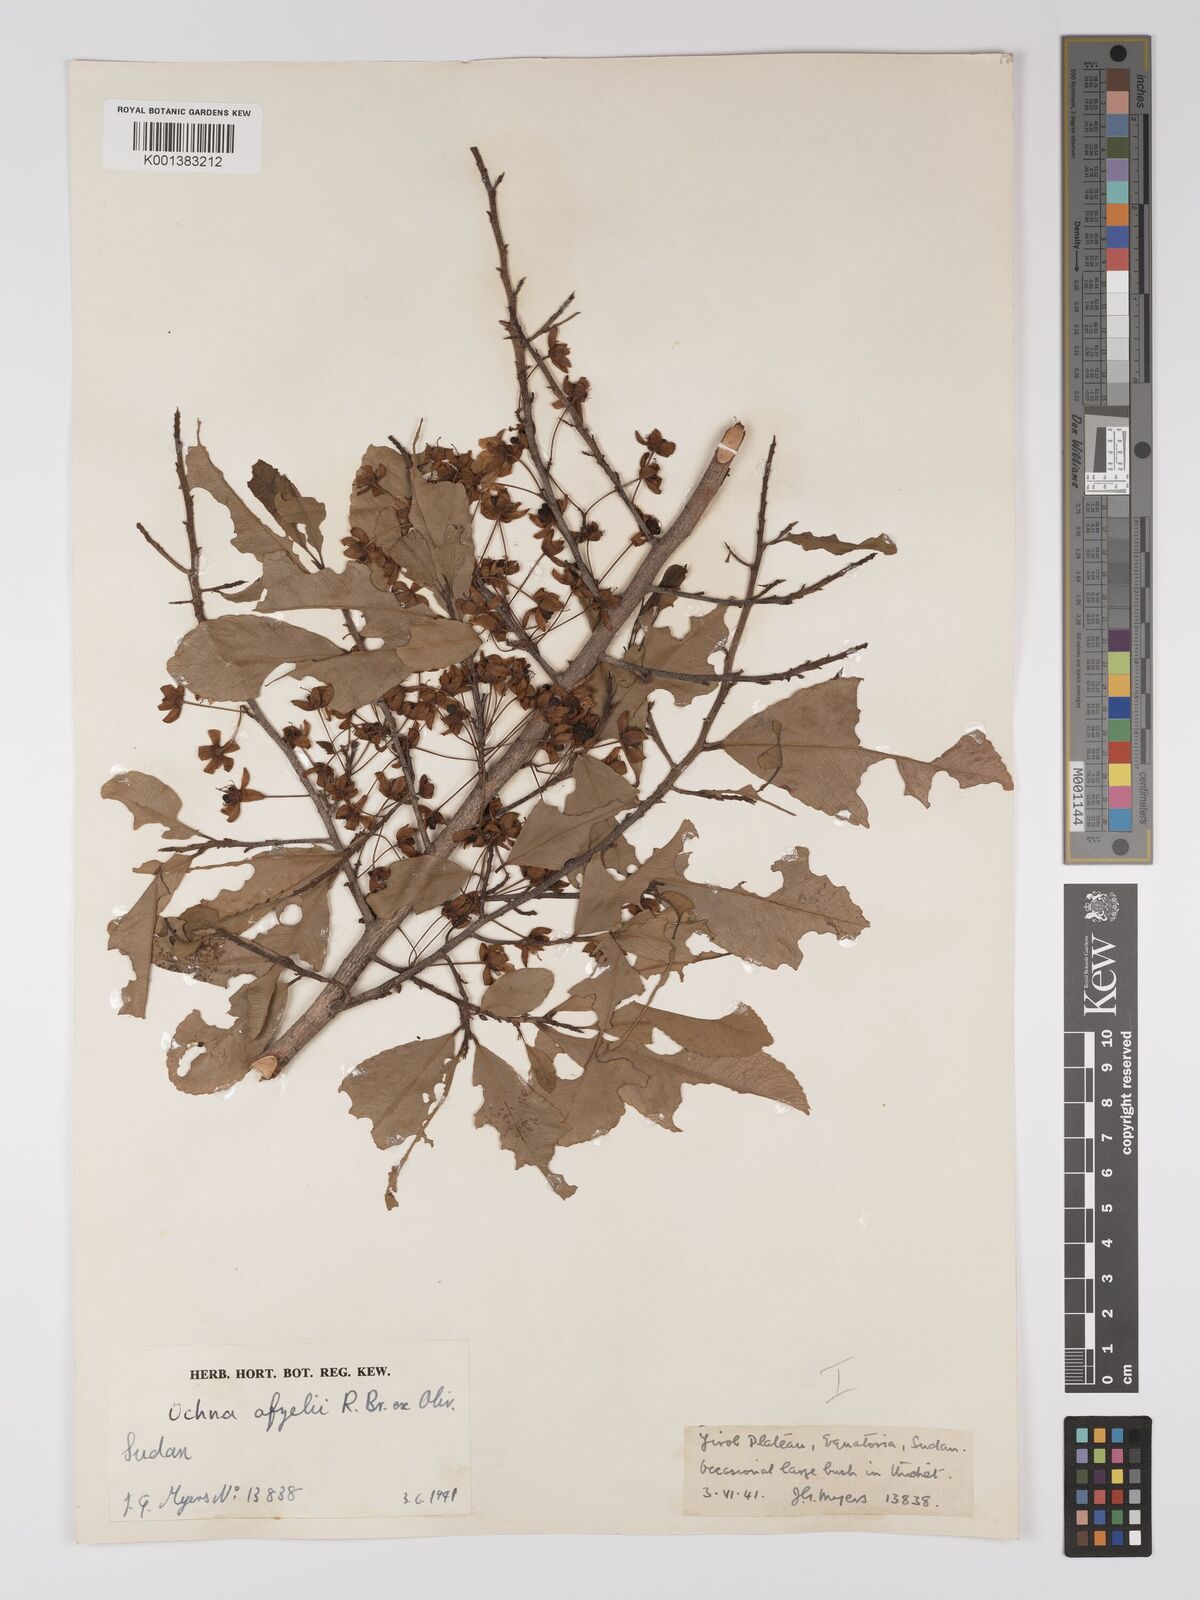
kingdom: Plantae
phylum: Tracheophyta
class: Magnoliopsida
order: Malpighiales
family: Ochnaceae
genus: Ochna
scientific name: Ochna afzelii
